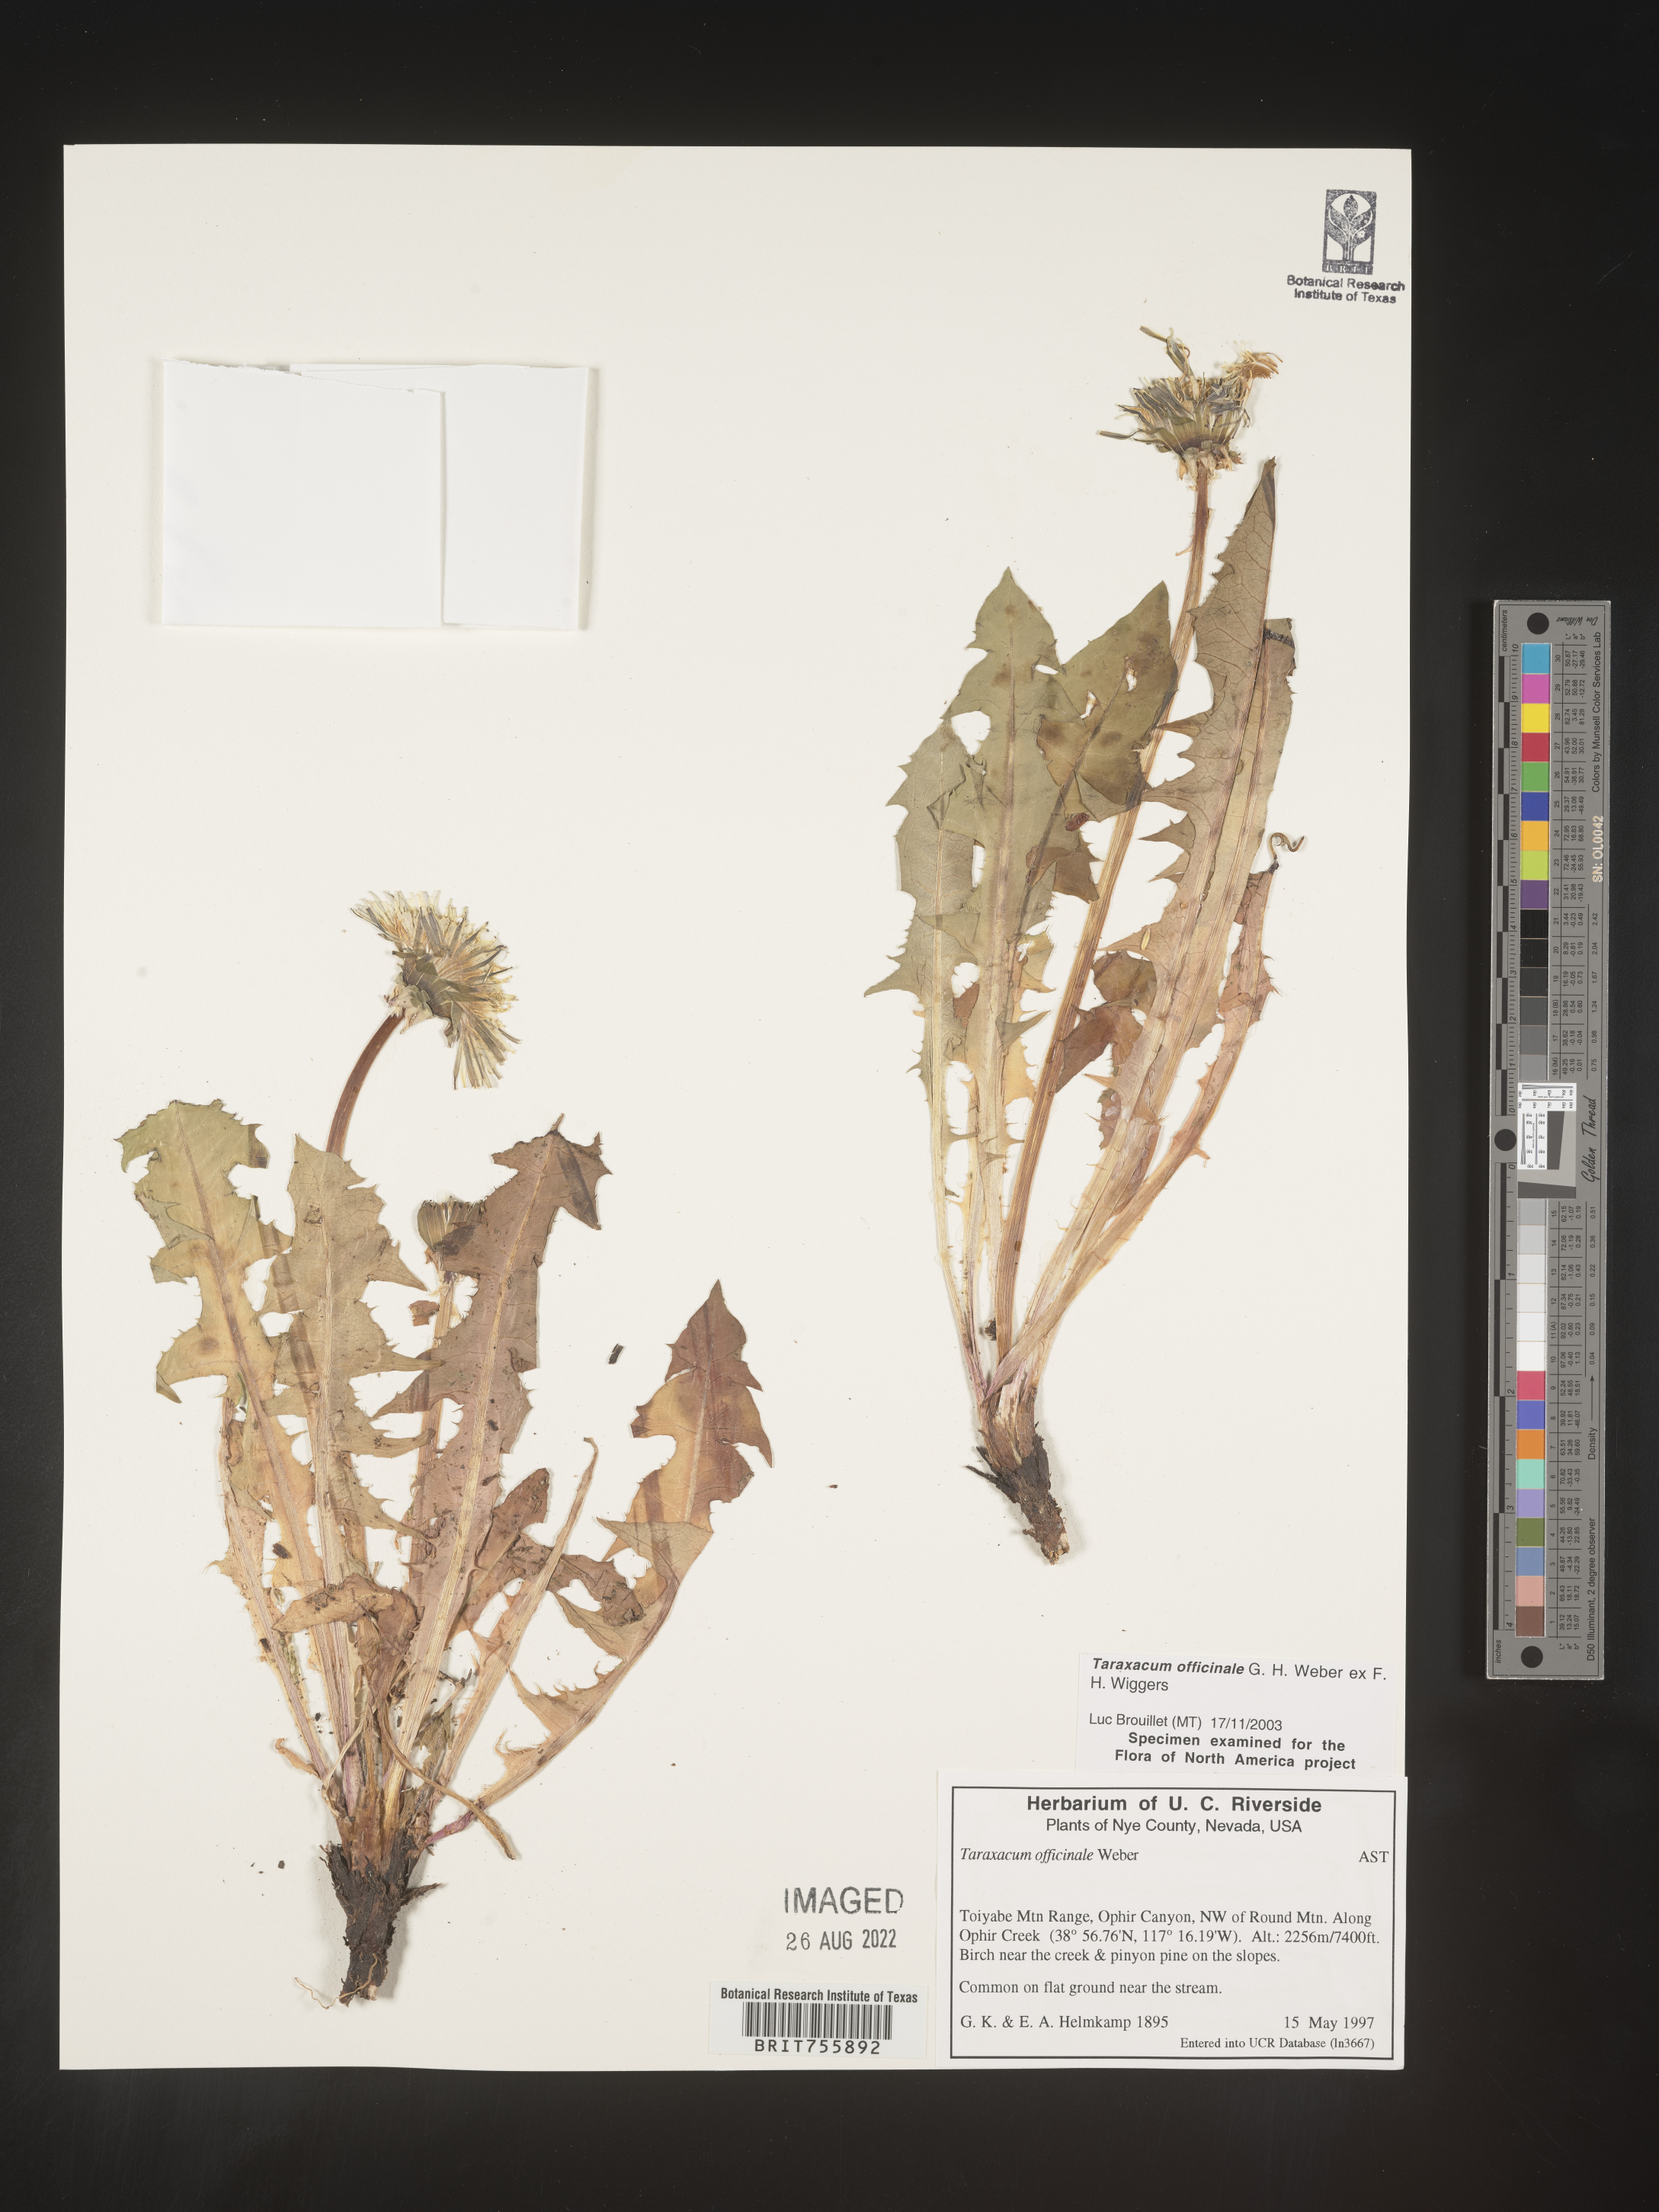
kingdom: Plantae
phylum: Tracheophyta
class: Magnoliopsida
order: Asterales
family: Asteraceae
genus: Taraxacum
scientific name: Taraxacum officinale
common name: Common dandelion
